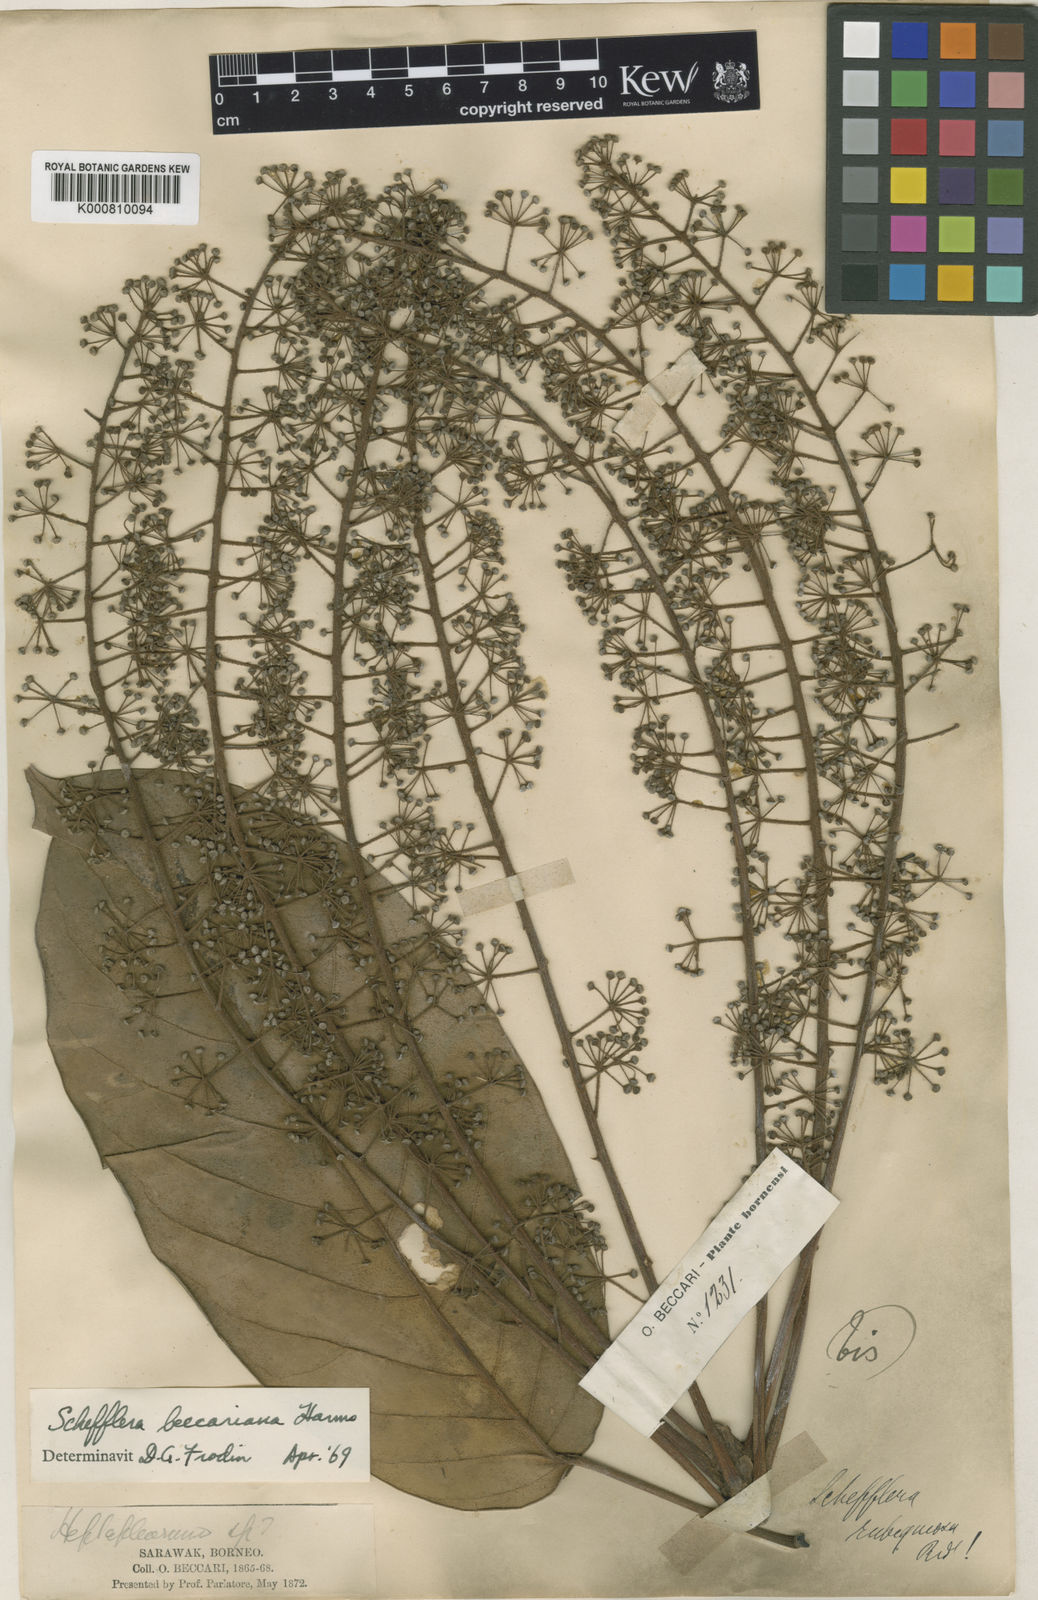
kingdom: Plantae
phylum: Tracheophyta
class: Magnoliopsida
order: Apiales
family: Araliaceae
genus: Heptapleurum
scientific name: Heptapleurum beccarianum
